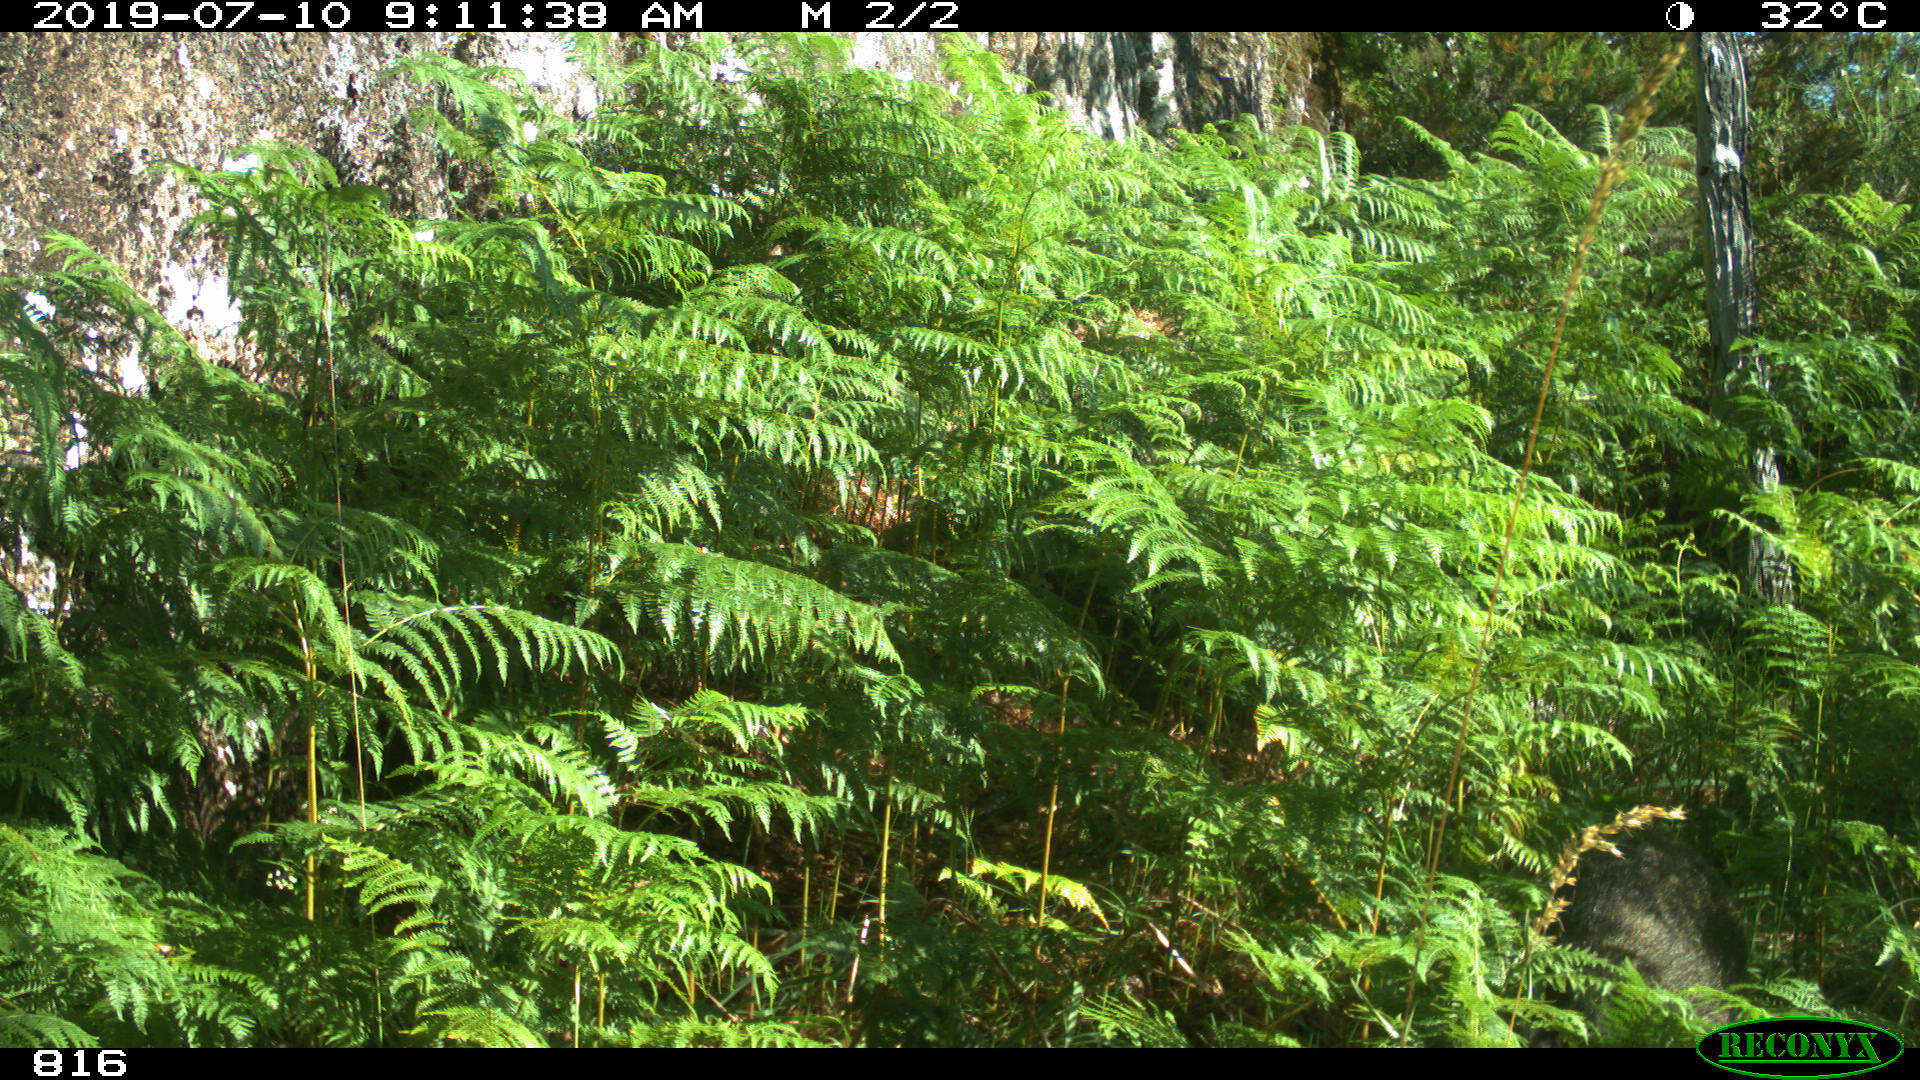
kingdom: Animalia
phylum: Chordata
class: Mammalia
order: Artiodactyla
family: Suidae
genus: Sus
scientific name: Sus scrofa
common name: Wild boar
